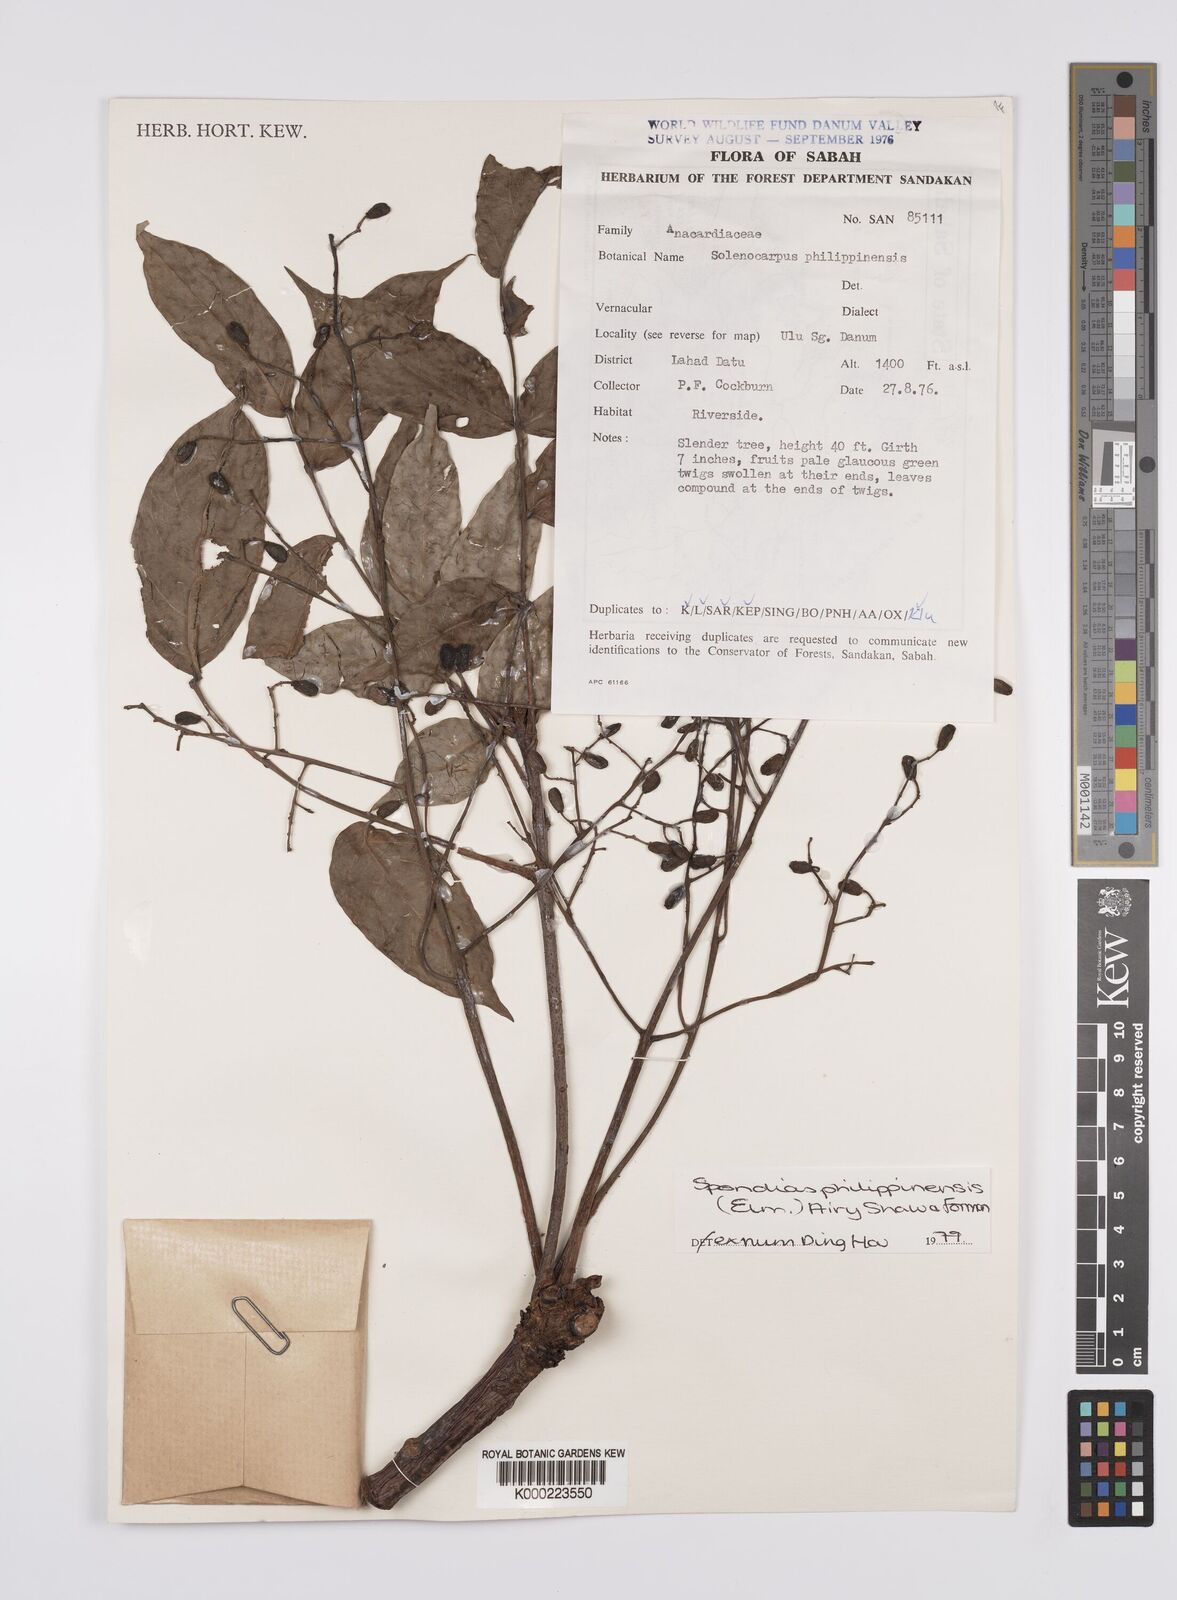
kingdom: Plantae
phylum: Tracheophyta
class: Magnoliopsida
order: Sapindales
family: Anacardiaceae
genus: Spondias
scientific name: Spondias philippinensis
